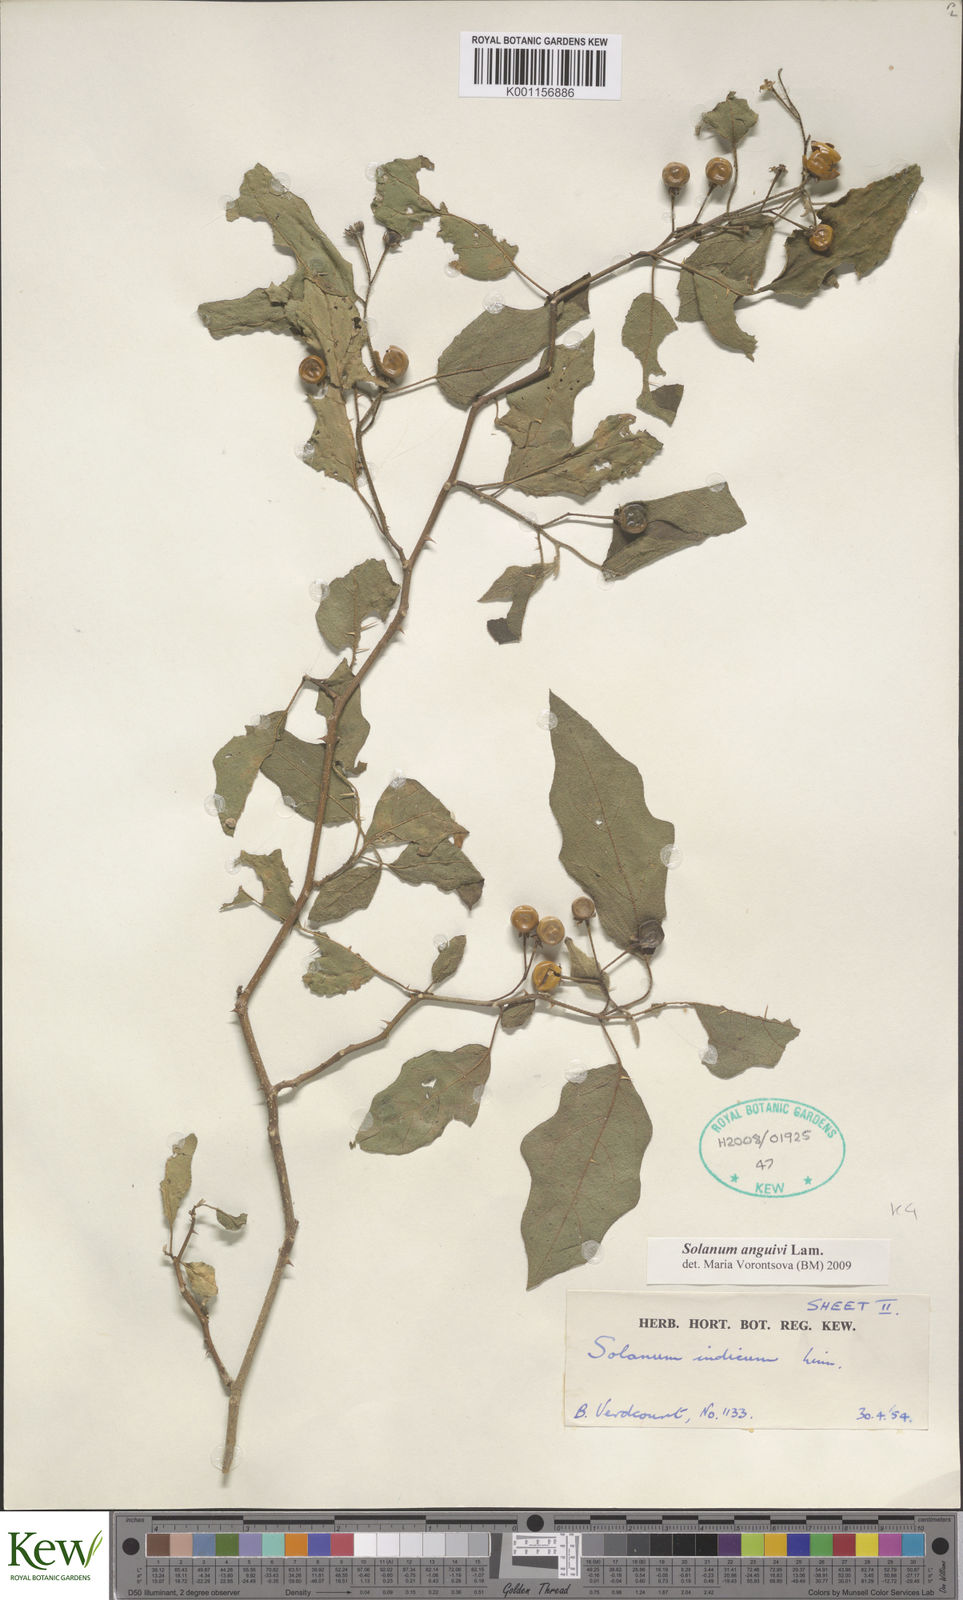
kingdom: Plantae
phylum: Tracheophyta
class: Magnoliopsida
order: Solanales
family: Solanaceae
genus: Solanum
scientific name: Solanum anguivi
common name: Forest bitterberry
